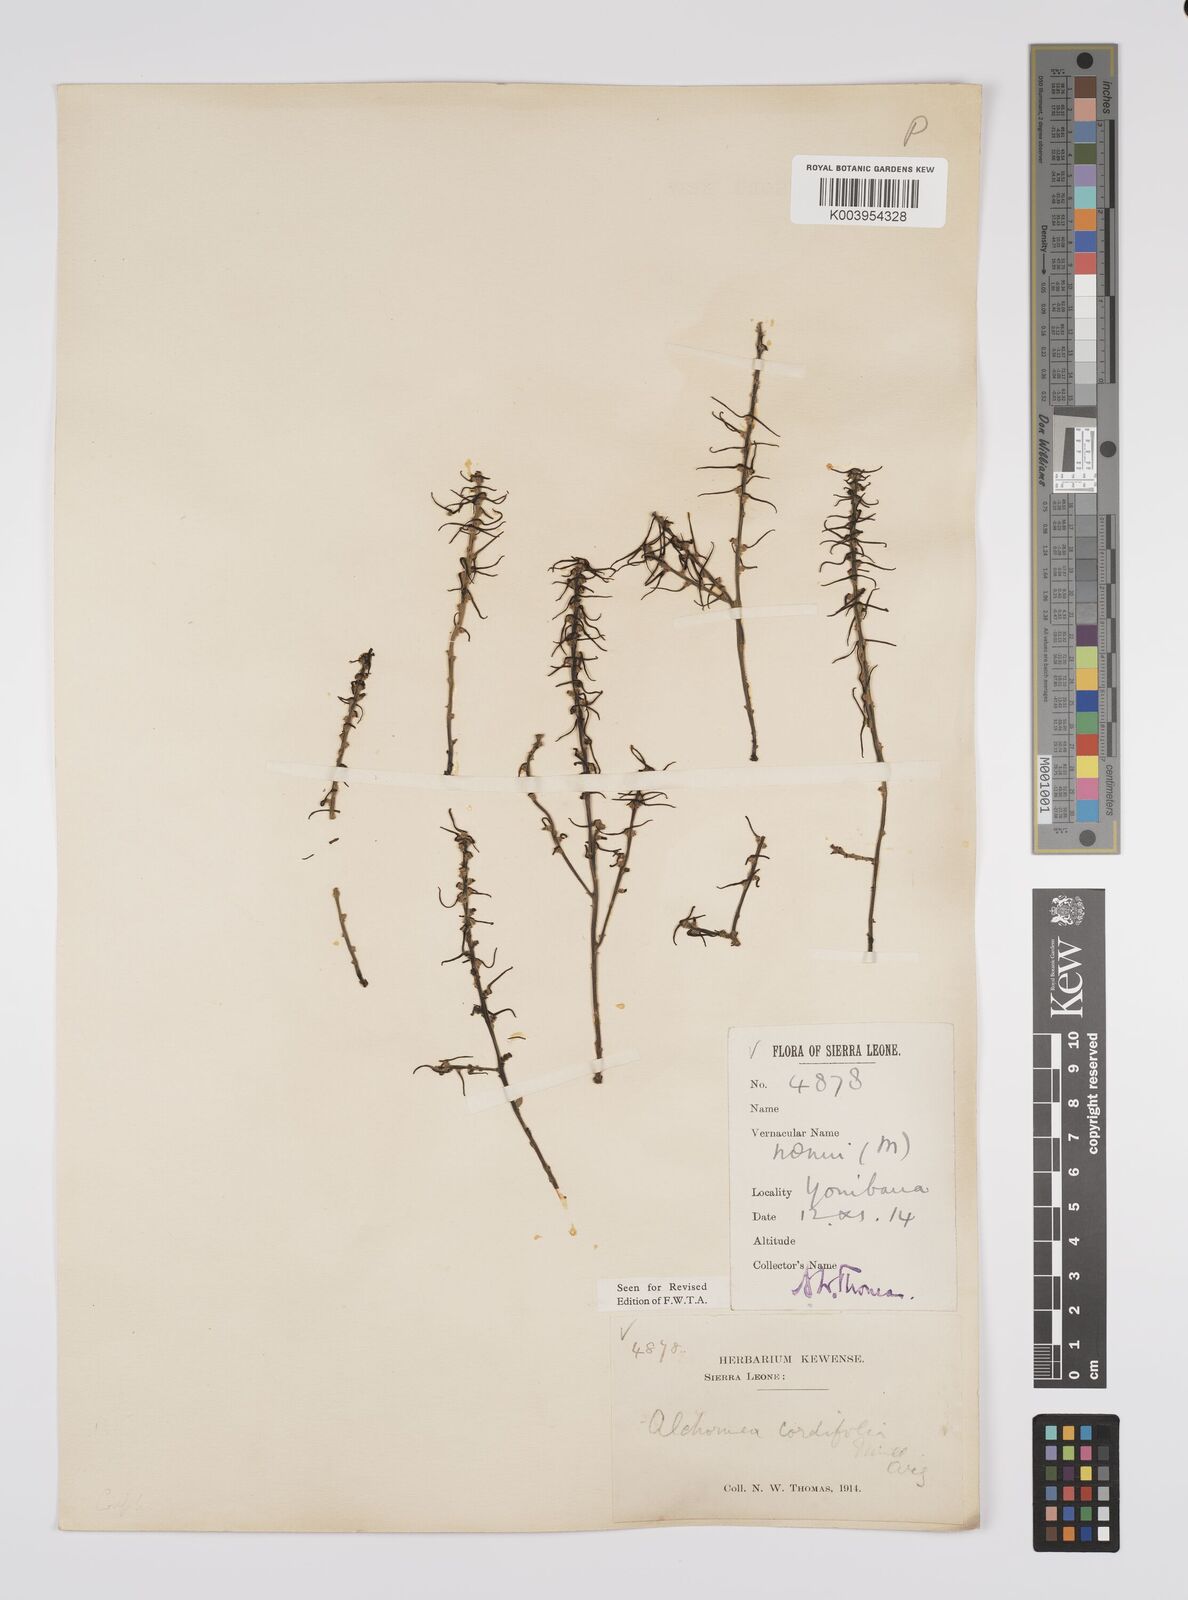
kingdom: Plantae
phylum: Tracheophyta
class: Magnoliopsida
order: Malpighiales
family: Euphorbiaceae
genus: Alchornea
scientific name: Alchornea cordifolia
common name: Christmasbush
